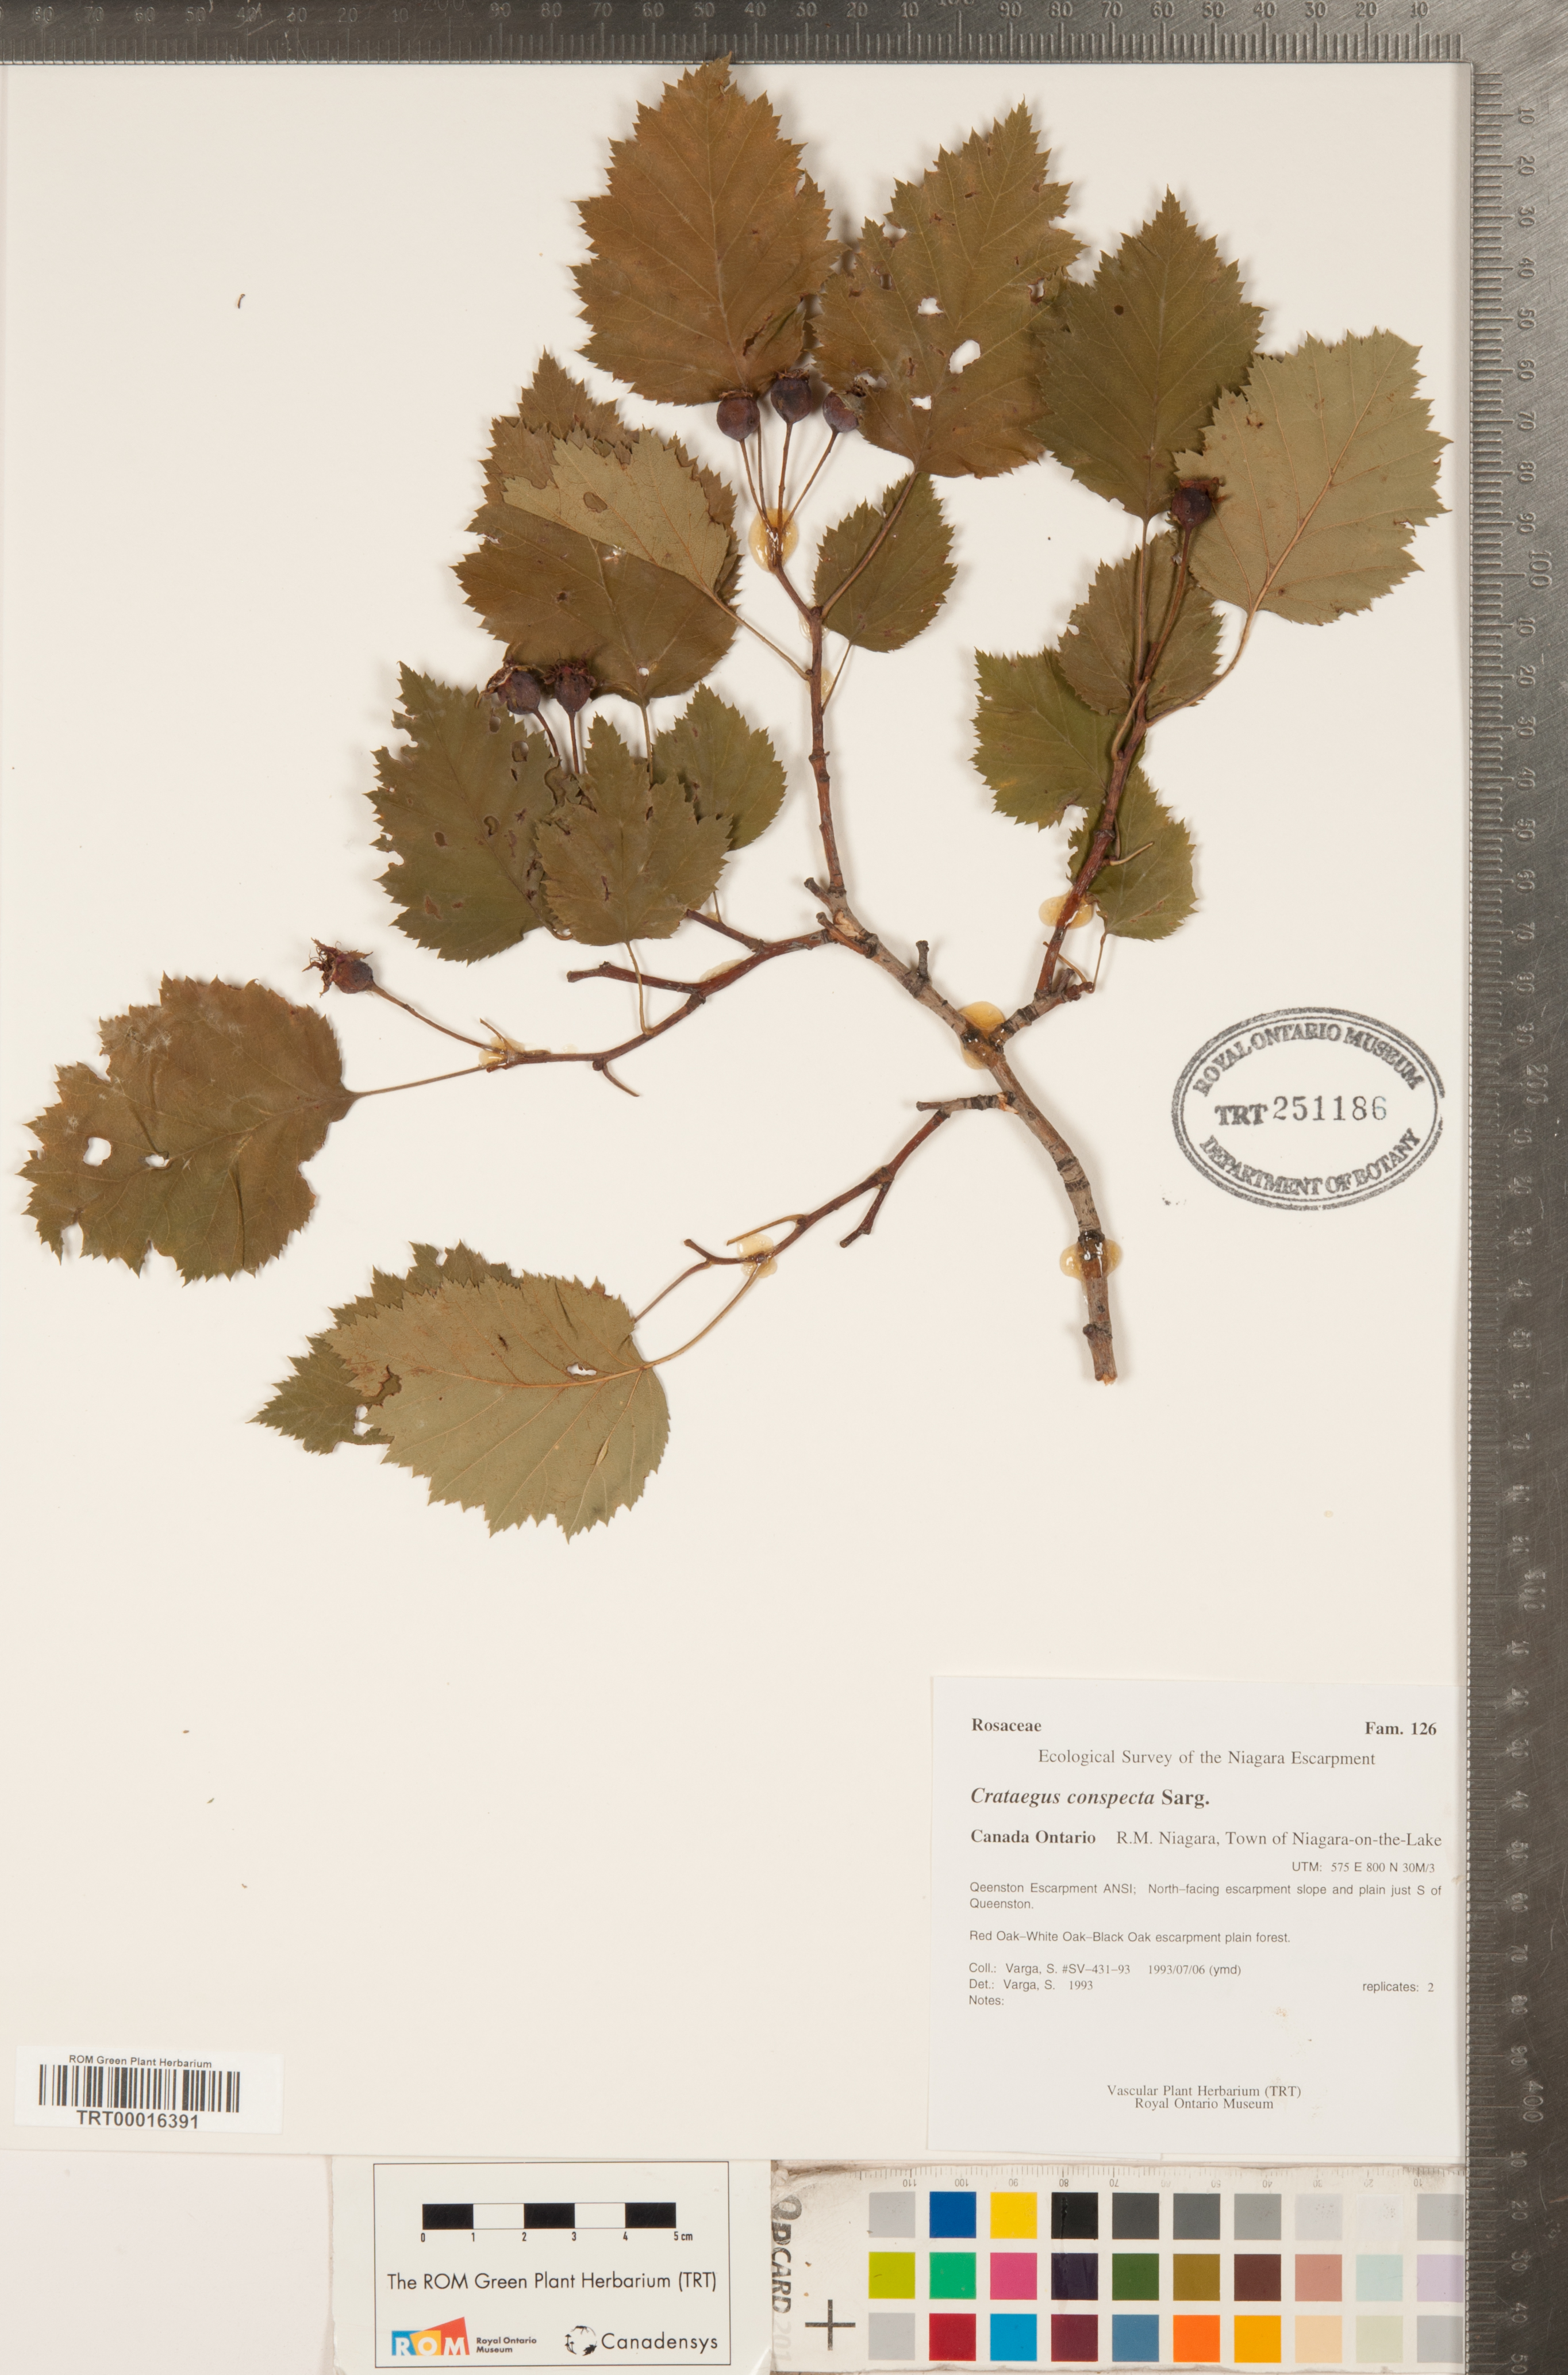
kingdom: Plantae
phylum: Tracheophyta
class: Magnoliopsida
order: Rosales
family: Rosaceae
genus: Crataegus
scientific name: Crataegus coccinioides
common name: Large-flowered cockspurthorn
